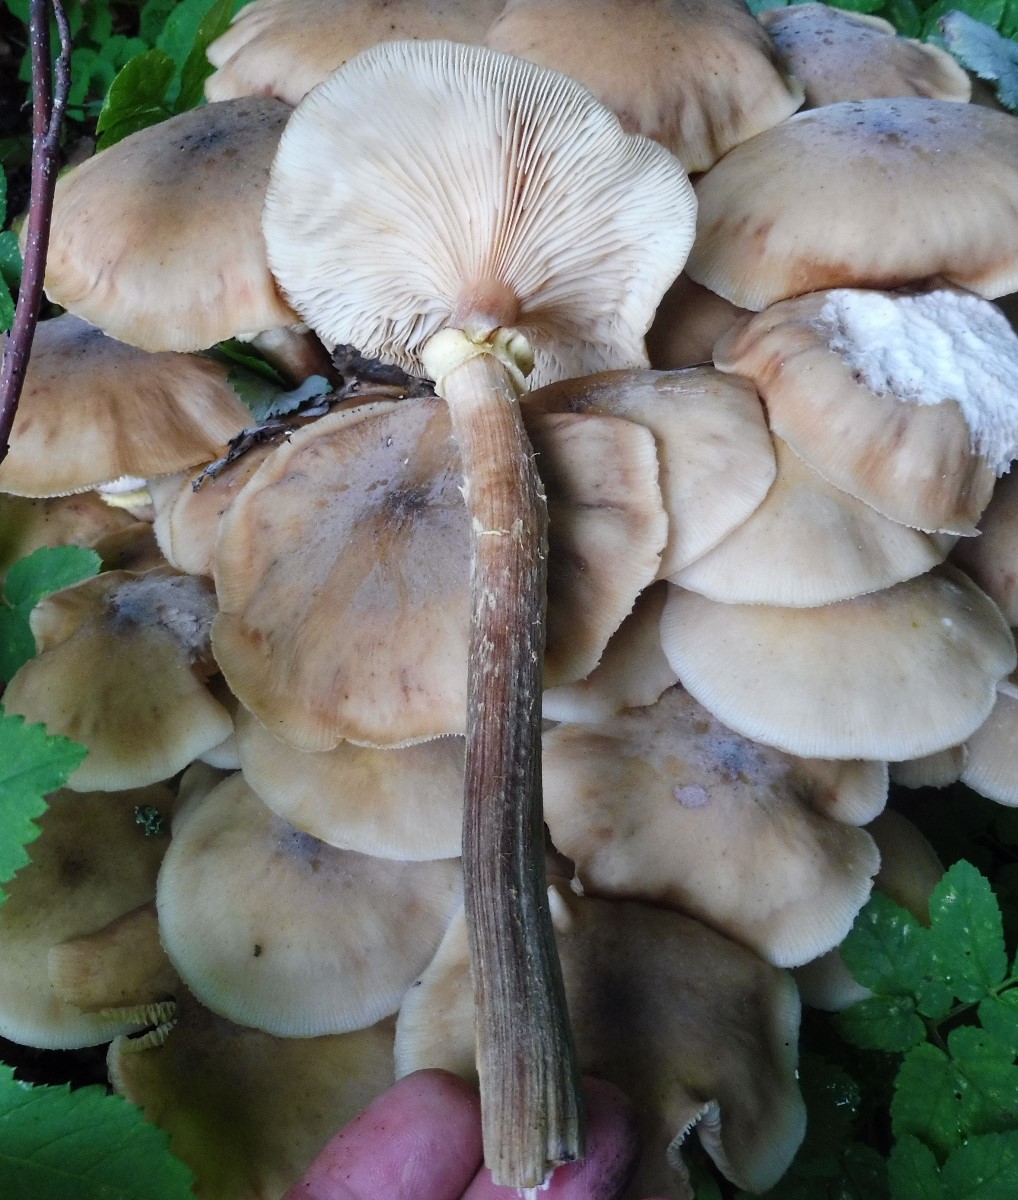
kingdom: Fungi
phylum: Basidiomycota
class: Agaricomycetes
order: Agaricales
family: Physalacriaceae
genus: Armillaria
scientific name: Armillaria mellea
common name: ægte honningsvamp
